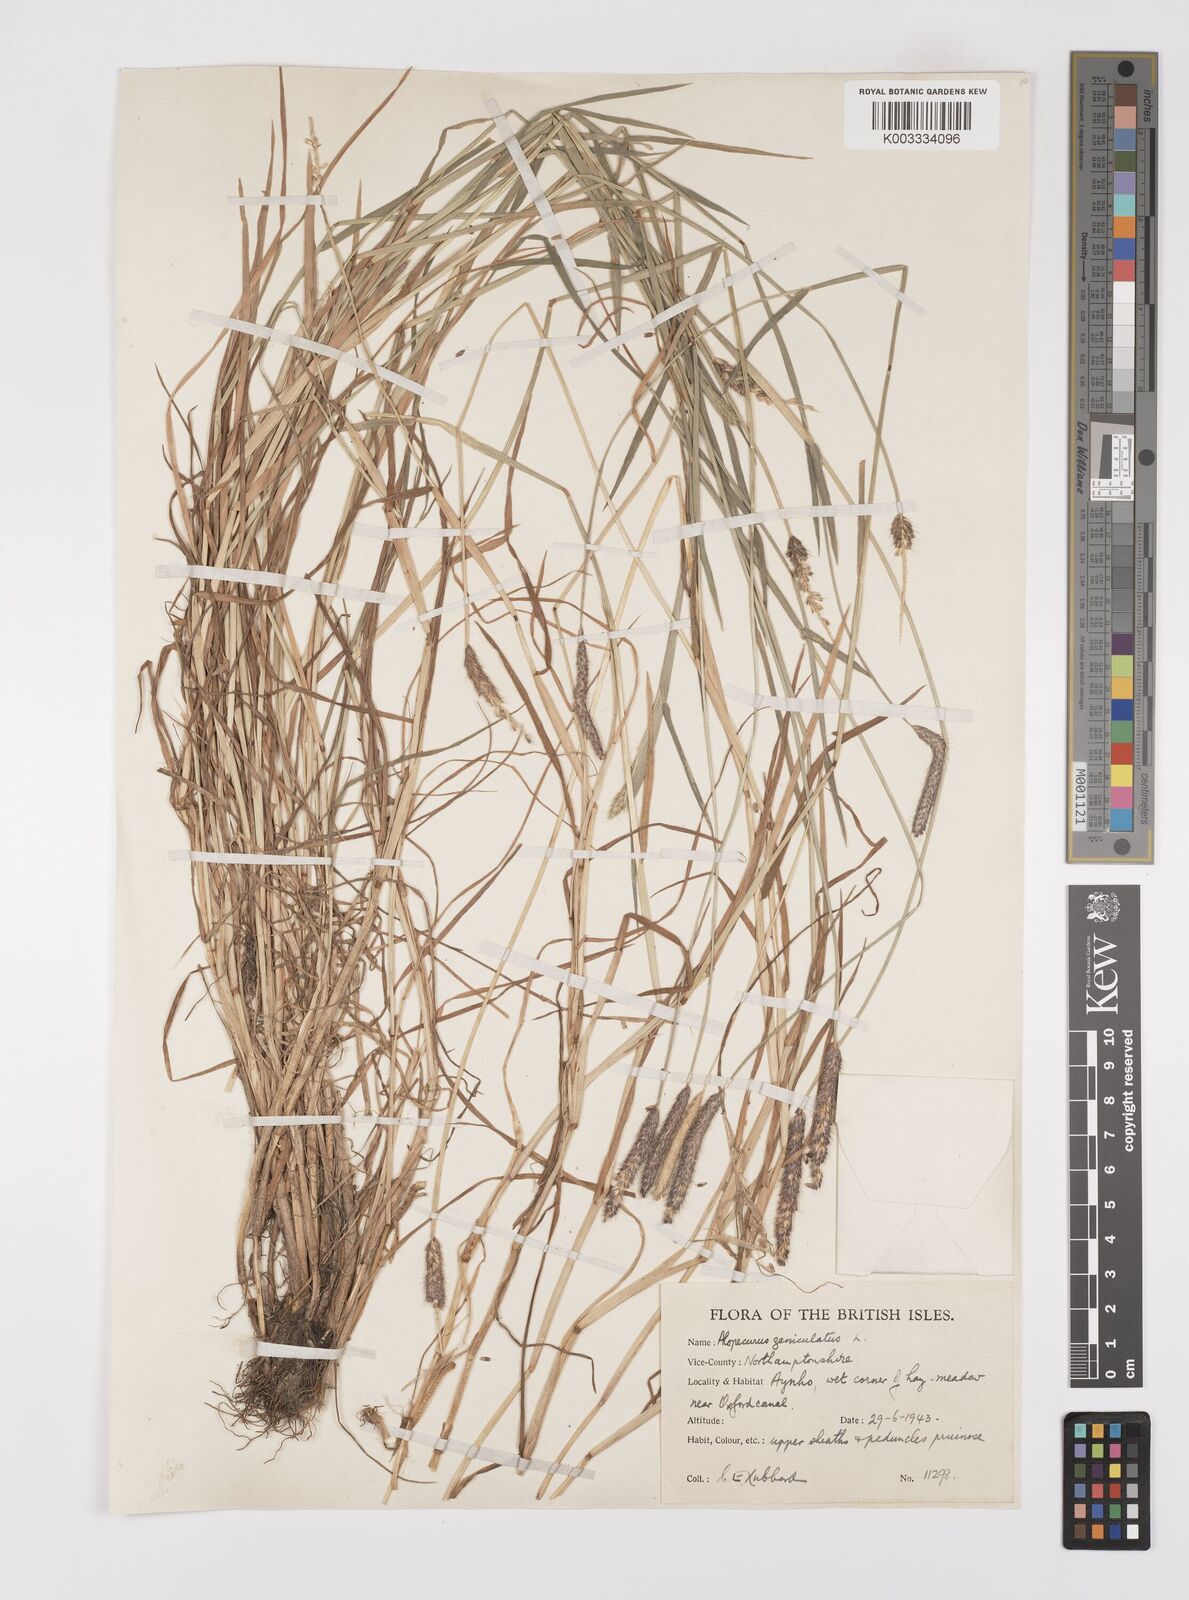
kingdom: Plantae
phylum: Tracheophyta
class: Liliopsida
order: Poales
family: Poaceae
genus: Alopecurus
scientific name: Alopecurus geniculatus
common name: Water foxtail
